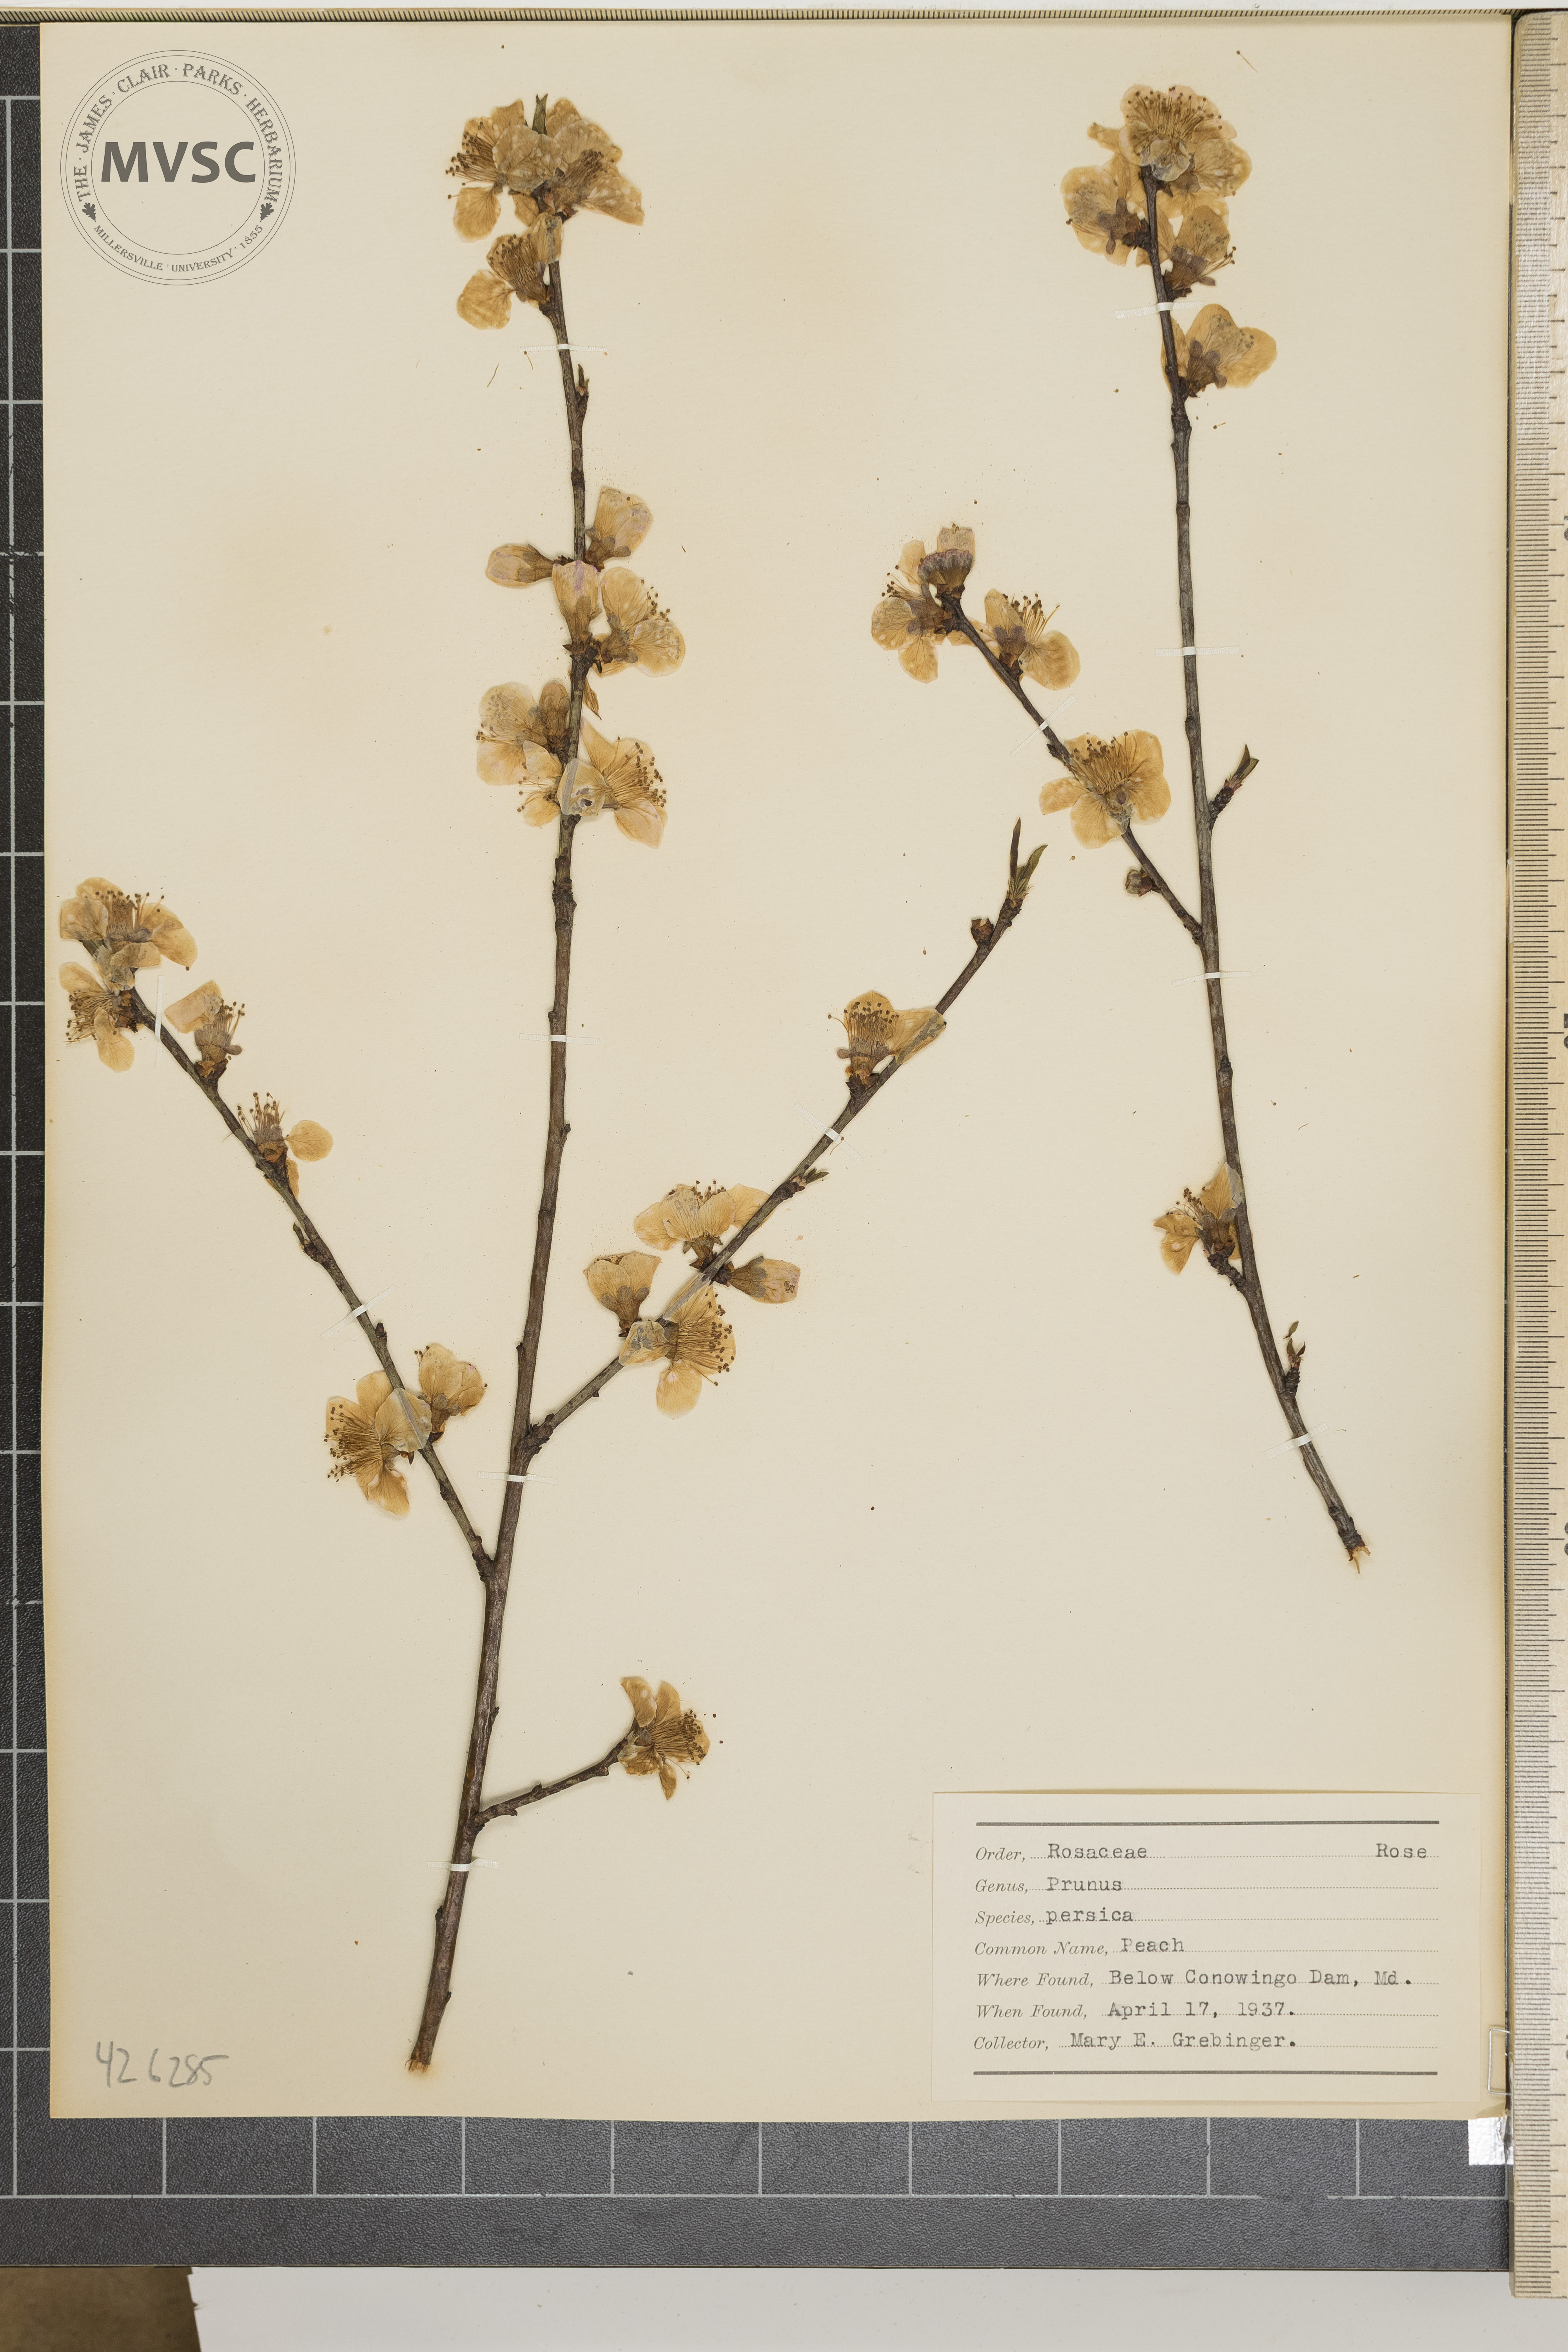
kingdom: Plantae
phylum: Tracheophyta
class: Magnoliopsida
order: Rosales
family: Rosaceae
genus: Prunus
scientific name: Prunus persica
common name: Peach
